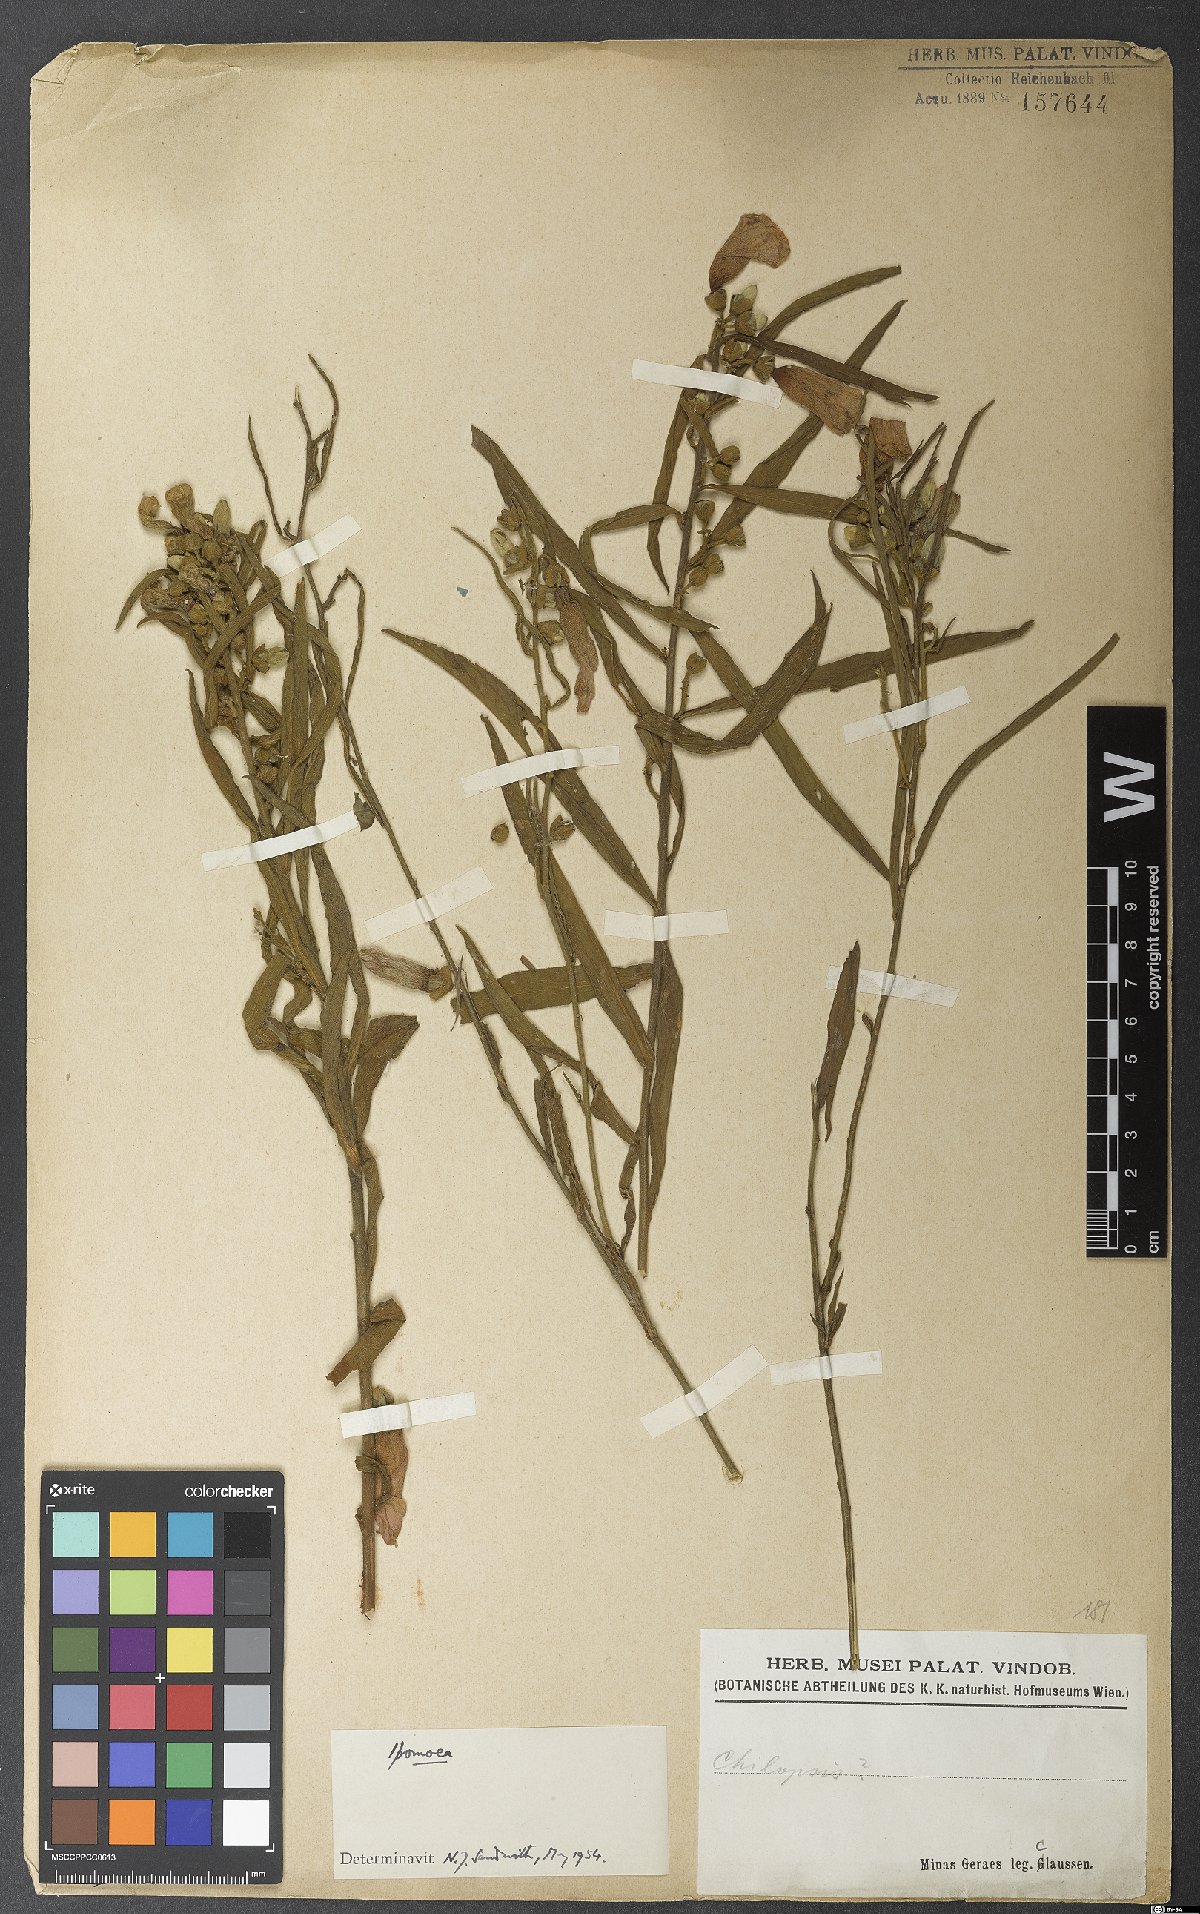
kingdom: Plantae
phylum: Tracheophyta
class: Magnoliopsida
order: Solanales
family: Convolvulaceae
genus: Ipomoea
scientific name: Ipomoea
